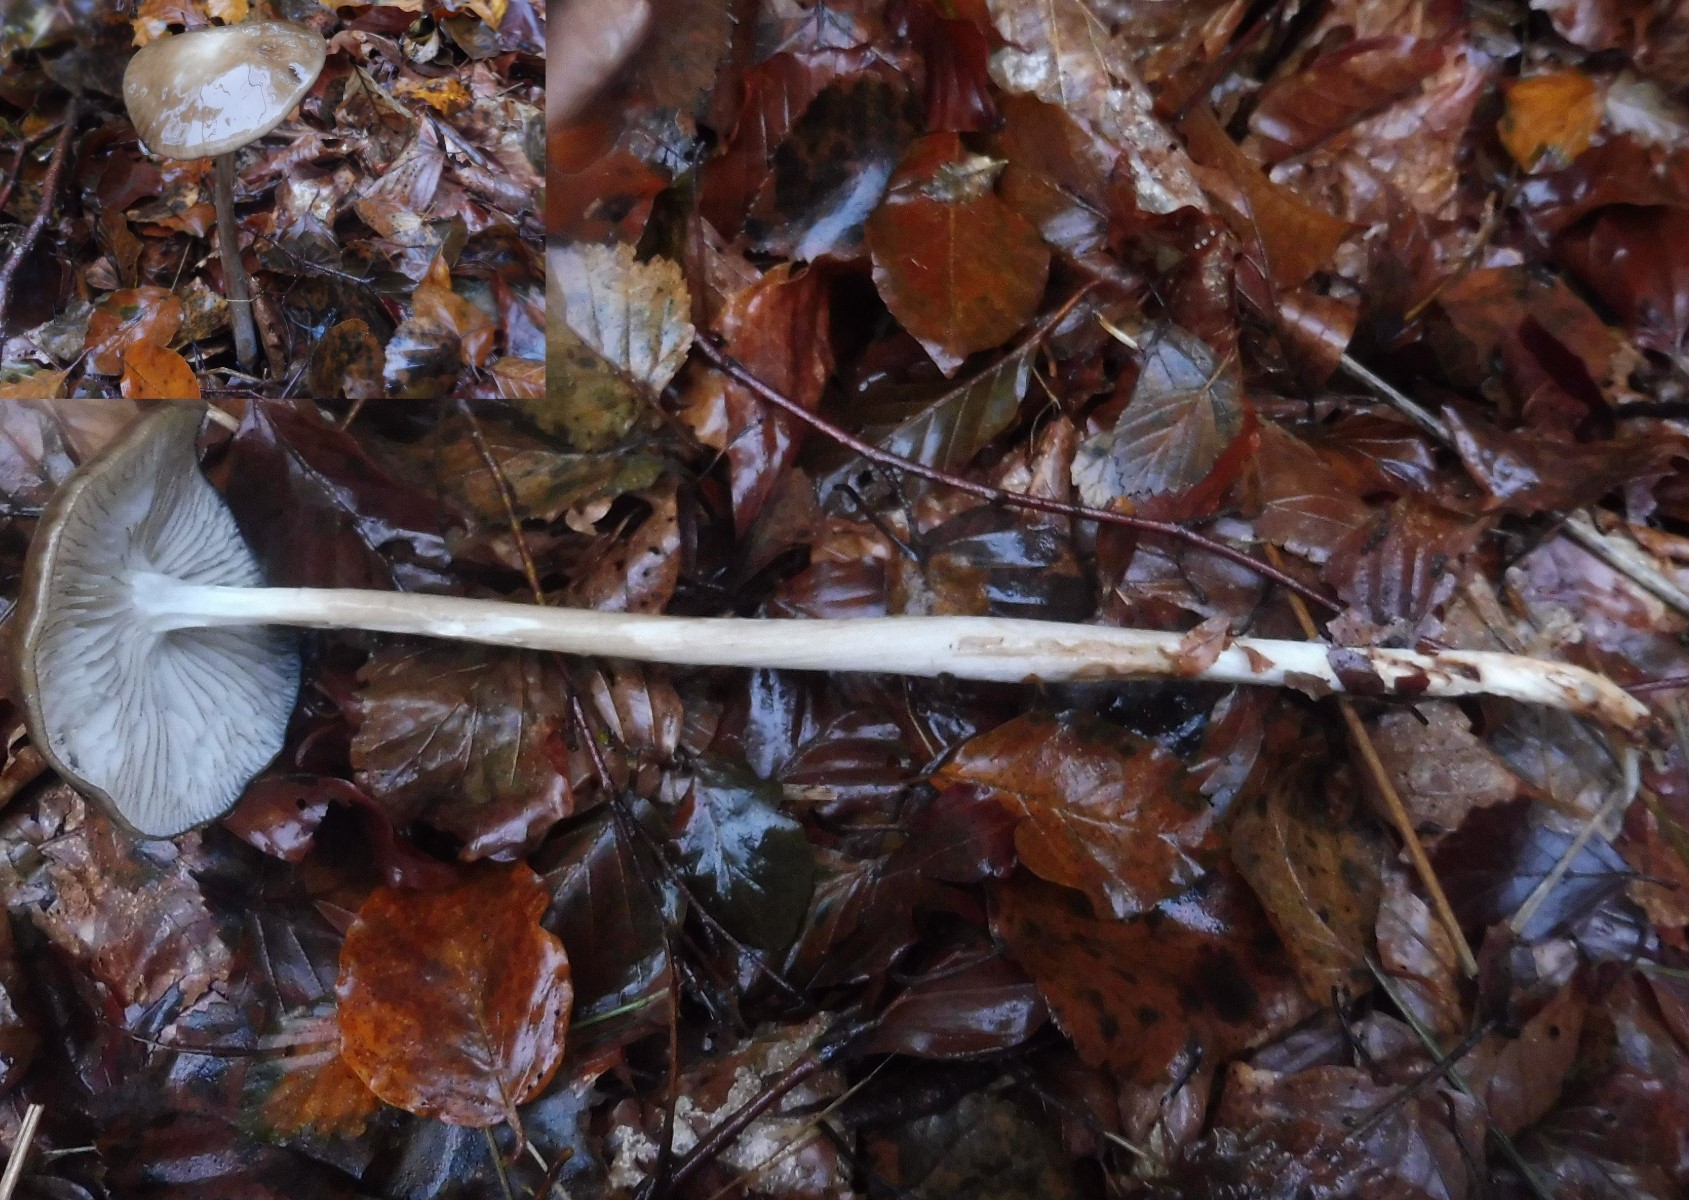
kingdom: Fungi
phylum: Basidiomycota
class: Agaricomycetes
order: Agaricales
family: Physalacriaceae
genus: Hymenopellis
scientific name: Hymenopellis radicata
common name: almindelig pælerodshat
